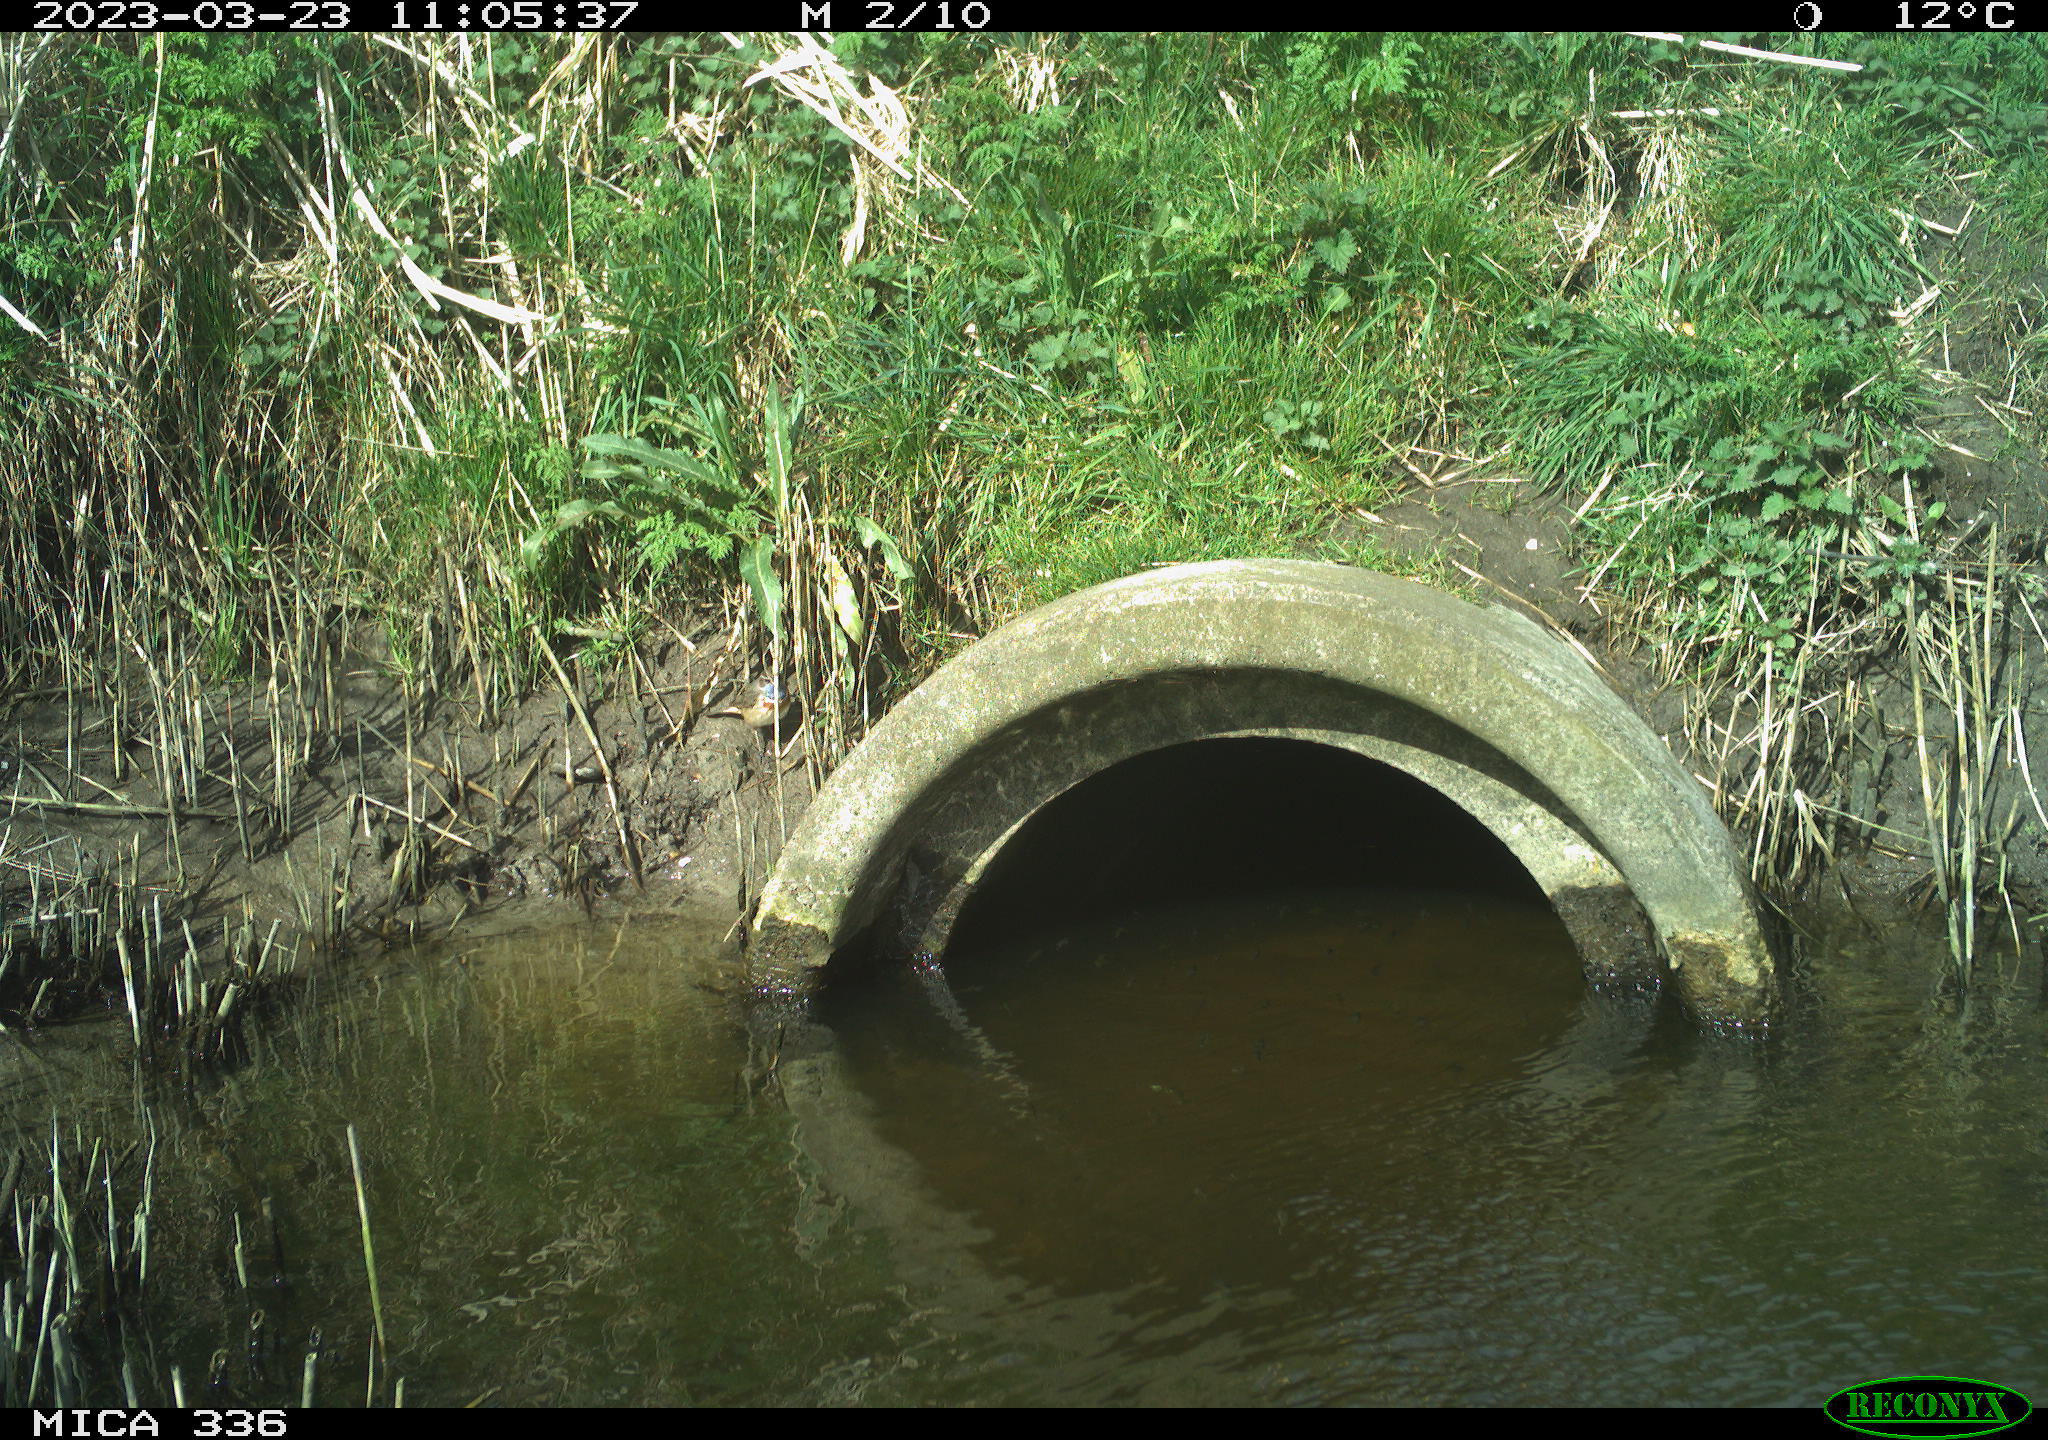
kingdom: Animalia
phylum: Chordata
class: Aves
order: Passeriformes
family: Muscicapidae
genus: Luscinia
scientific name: Luscinia svecica
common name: Bluethroat
